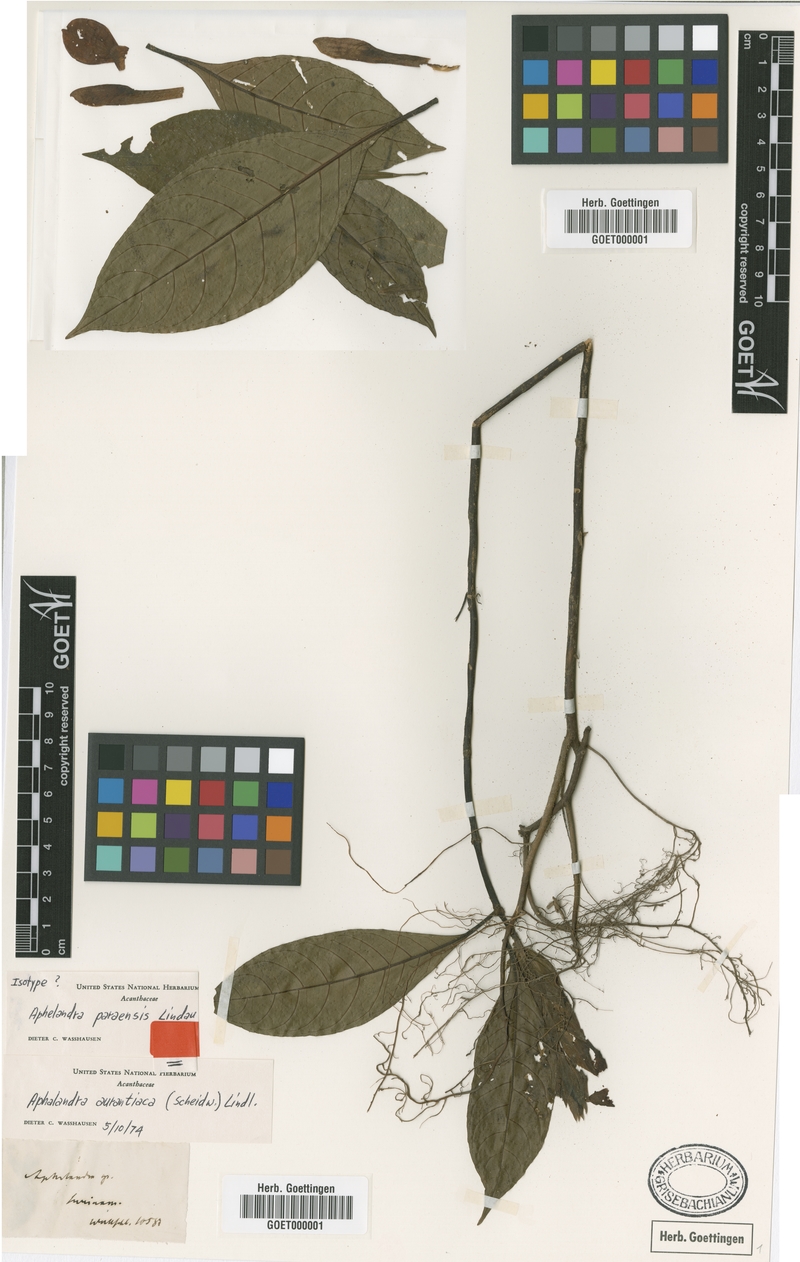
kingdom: Plantae
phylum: Tracheophyta
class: Magnoliopsida
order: Lamiales
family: Acanthaceae
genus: Aphelandra
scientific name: Aphelandra aurantiaca
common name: Fiery spike
